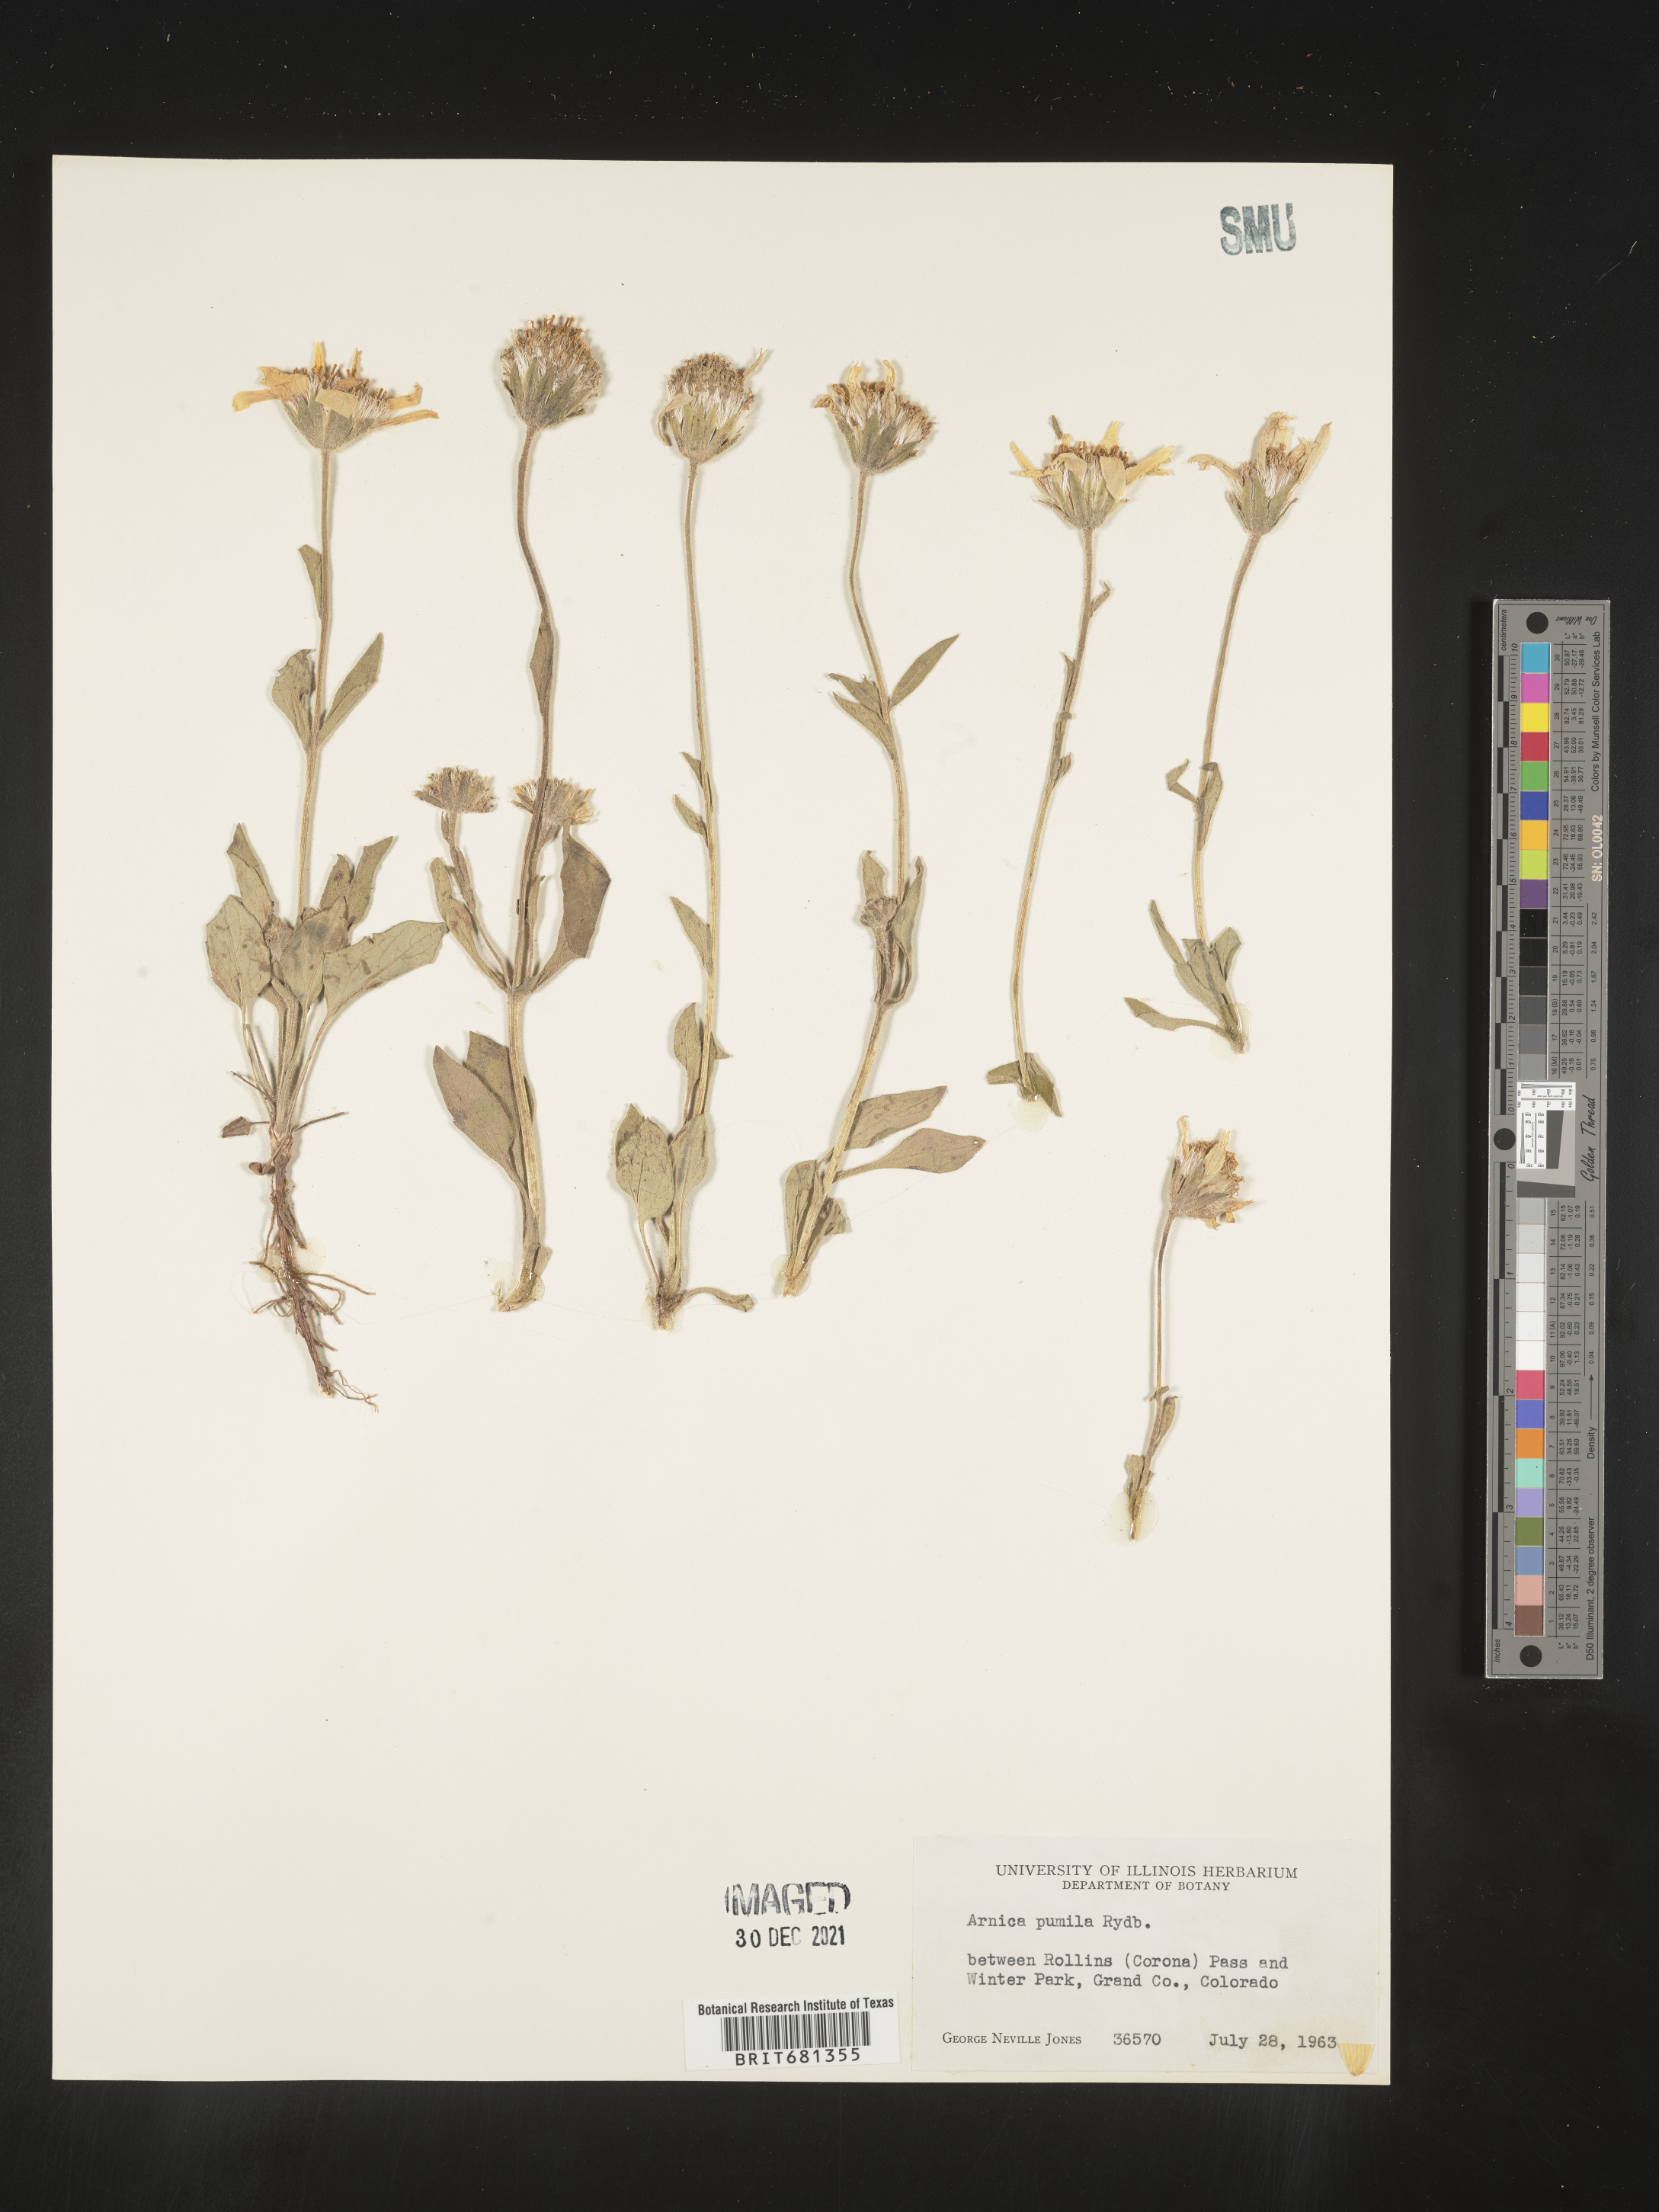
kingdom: Plantae
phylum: Tracheophyta
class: Magnoliopsida
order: Asterales
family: Asteraceae
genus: Arnica
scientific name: Arnica cordifolia
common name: Heart-leaf arnica
